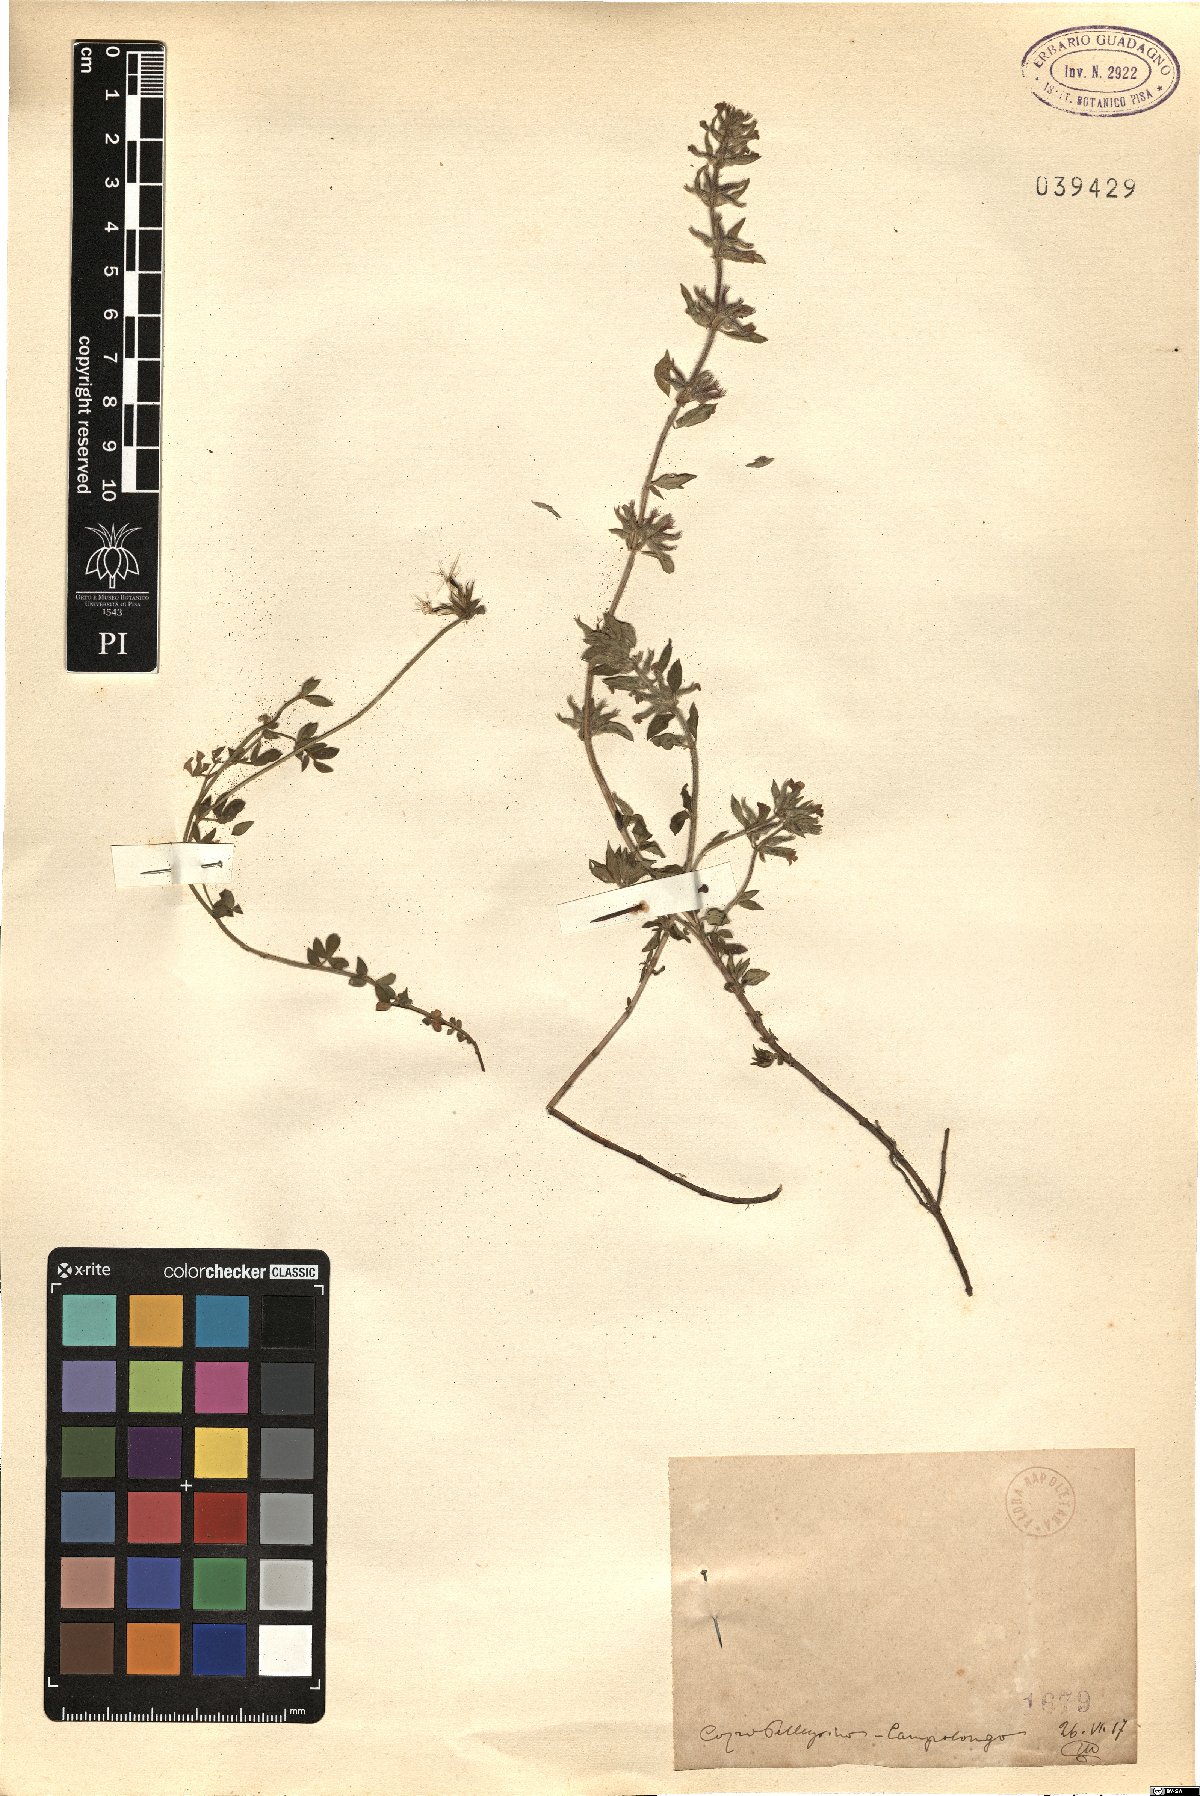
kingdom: Plantae
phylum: Tracheophyta
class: Magnoliopsida
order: Lamiales
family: Lamiaceae
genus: Calamintha
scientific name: Calamintha
